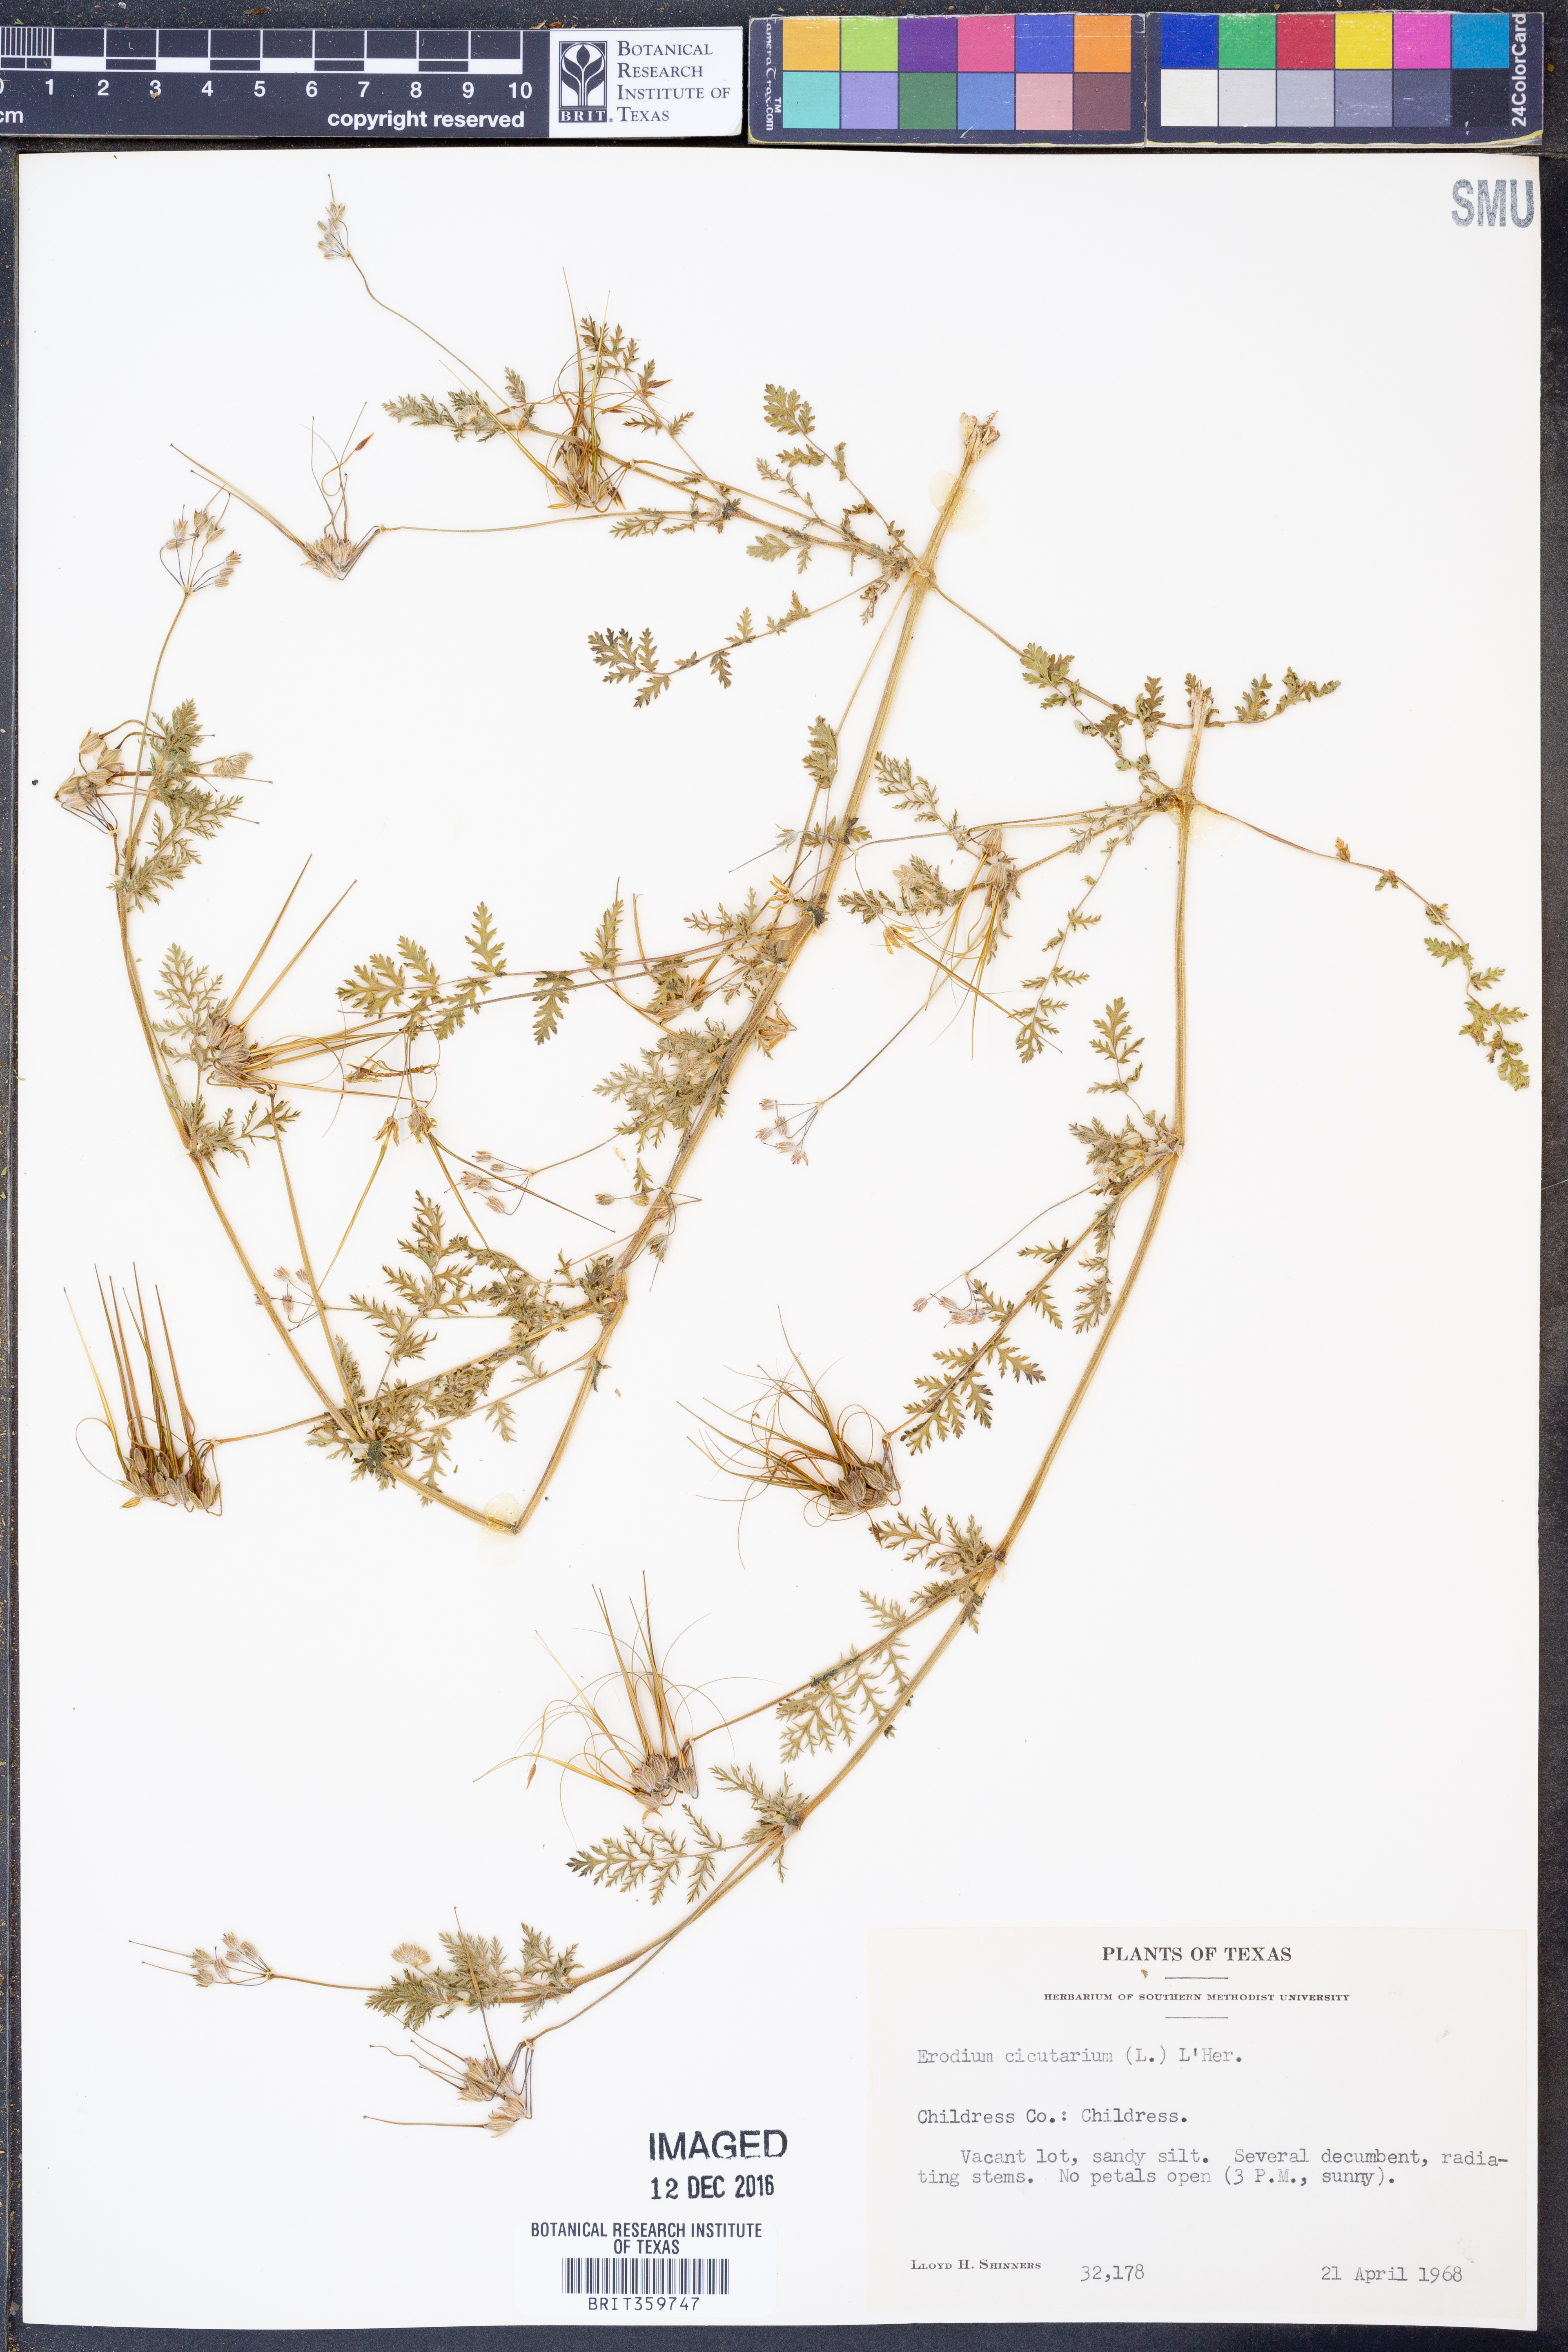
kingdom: Plantae
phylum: Tracheophyta
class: Magnoliopsida
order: Geraniales
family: Geraniaceae
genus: Erodium
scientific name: Erodium cicutarium
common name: Common stork's-bill
